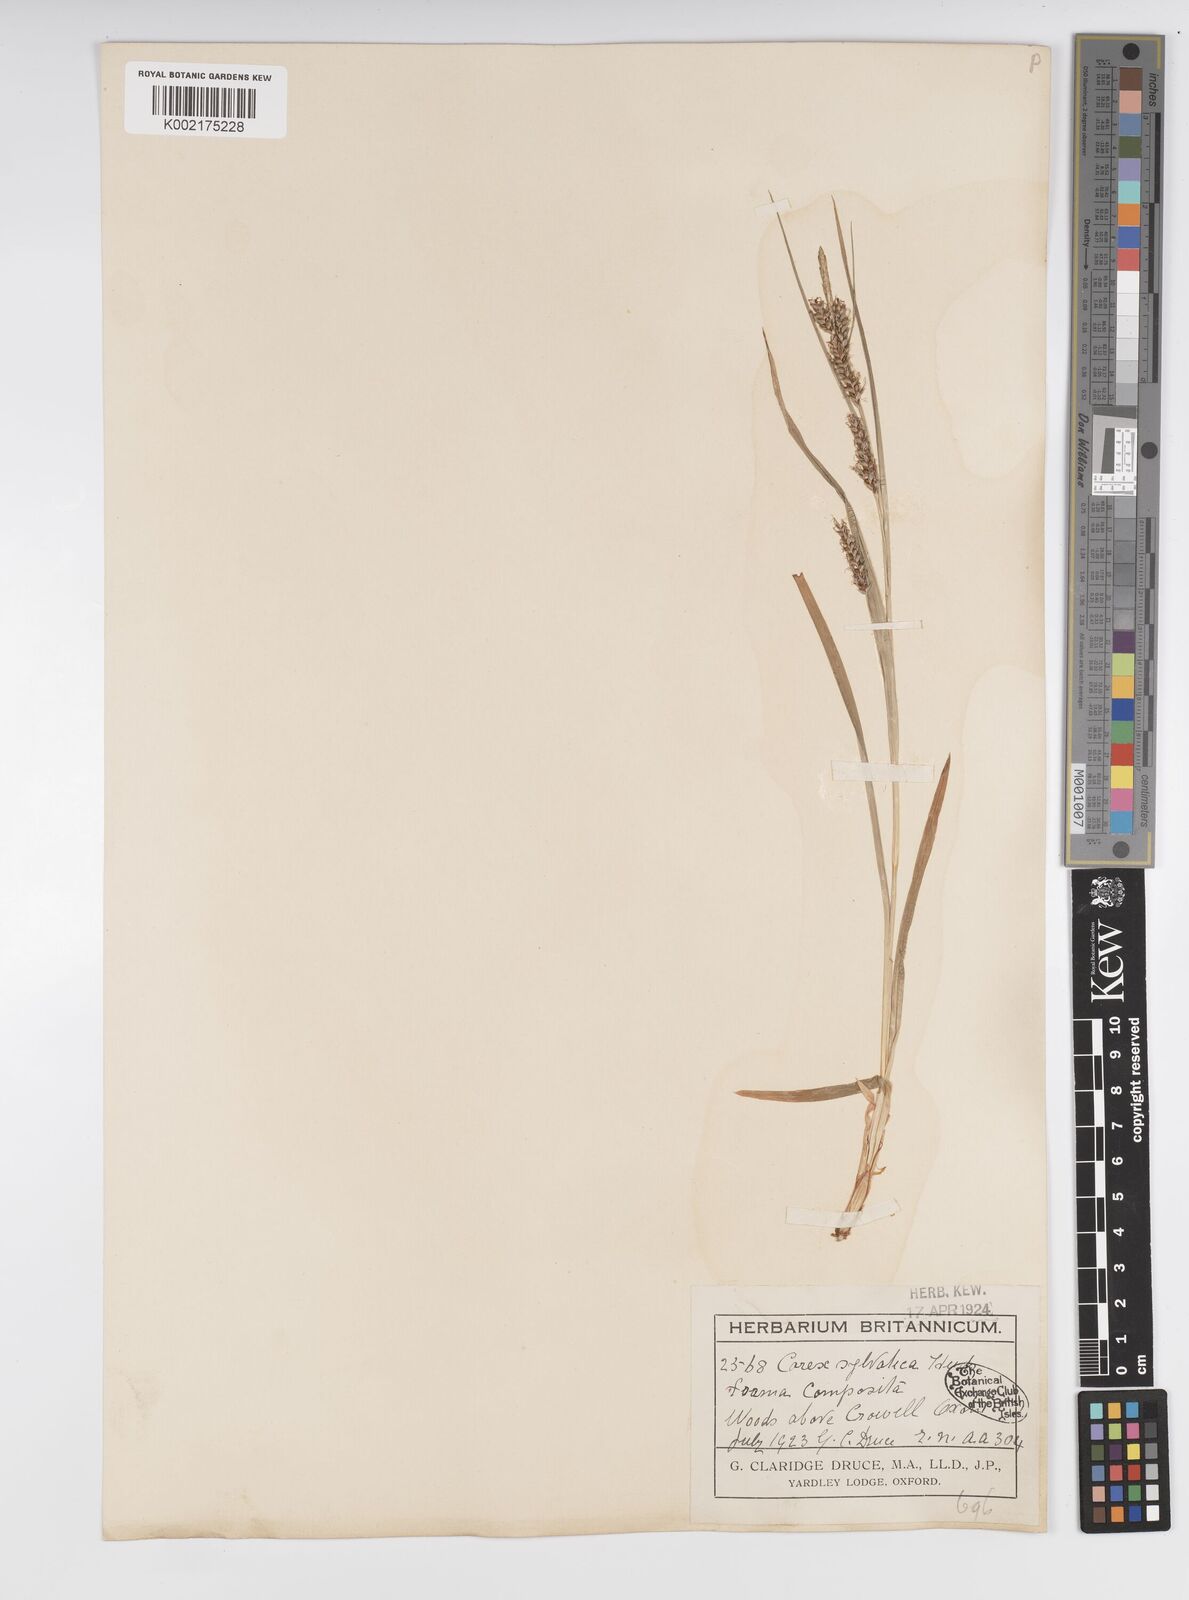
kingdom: Plantae
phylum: Tracheophyta
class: Liliopsida
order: Poales
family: Cyperaceae
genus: Carex
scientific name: Carex sylvatica
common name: Wood-sedge
